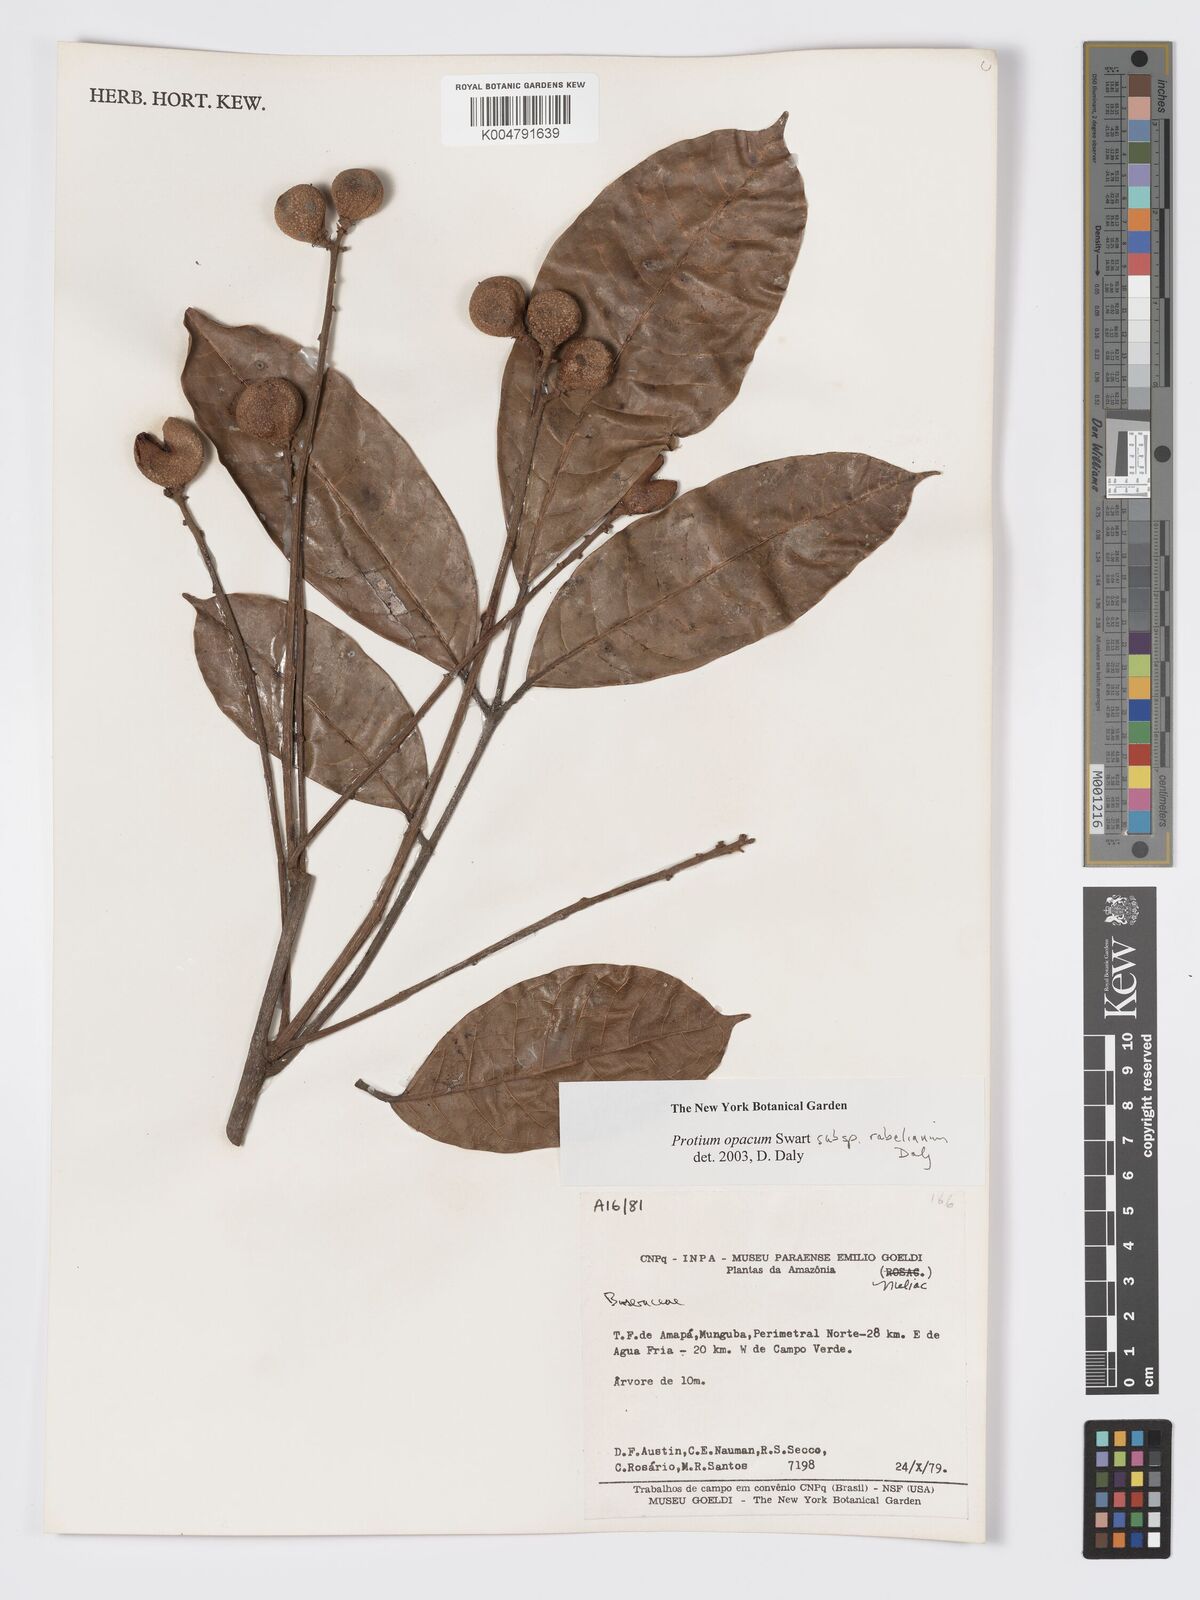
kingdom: Plantae
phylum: Tracheophyta
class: Magnoliopsida
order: Sapindales
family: Burseraceae
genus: Protium
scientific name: Protium opacum
